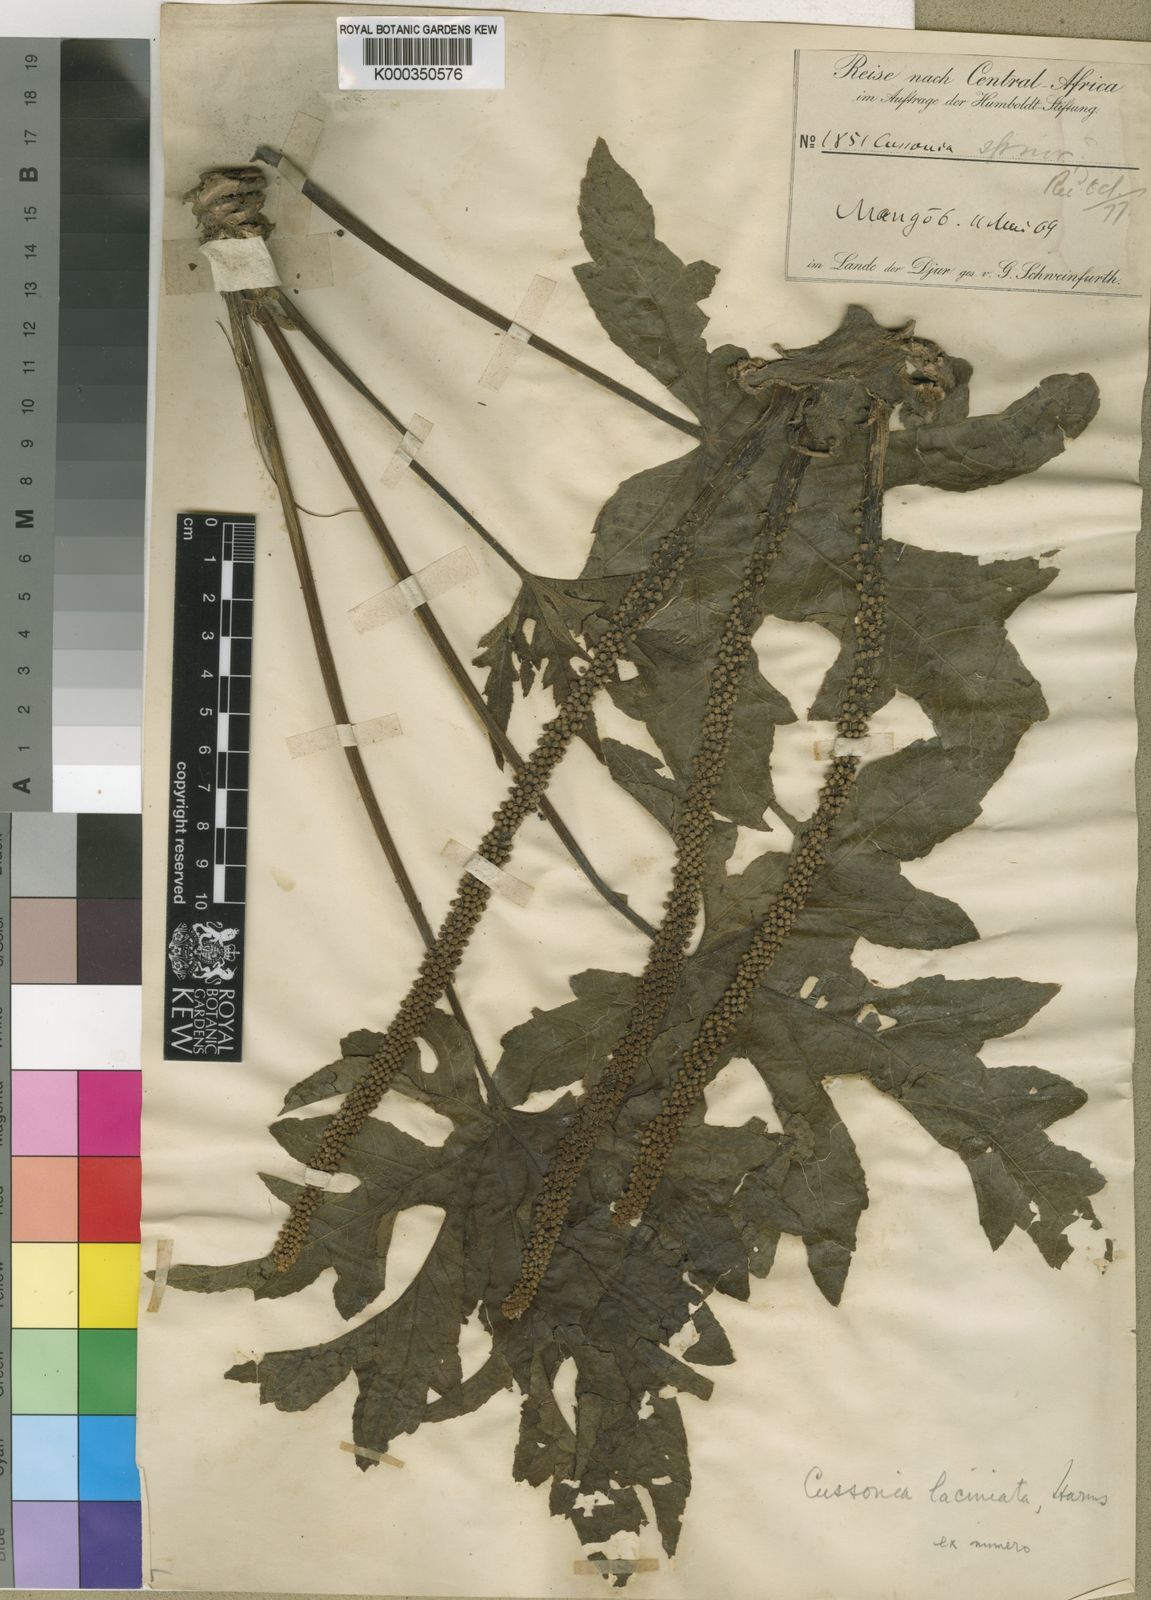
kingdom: Plantae
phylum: Tracheophyta
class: Magnoliopsida
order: Apiales
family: Araliaceae
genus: Cussonia
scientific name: Cussonia arborea
